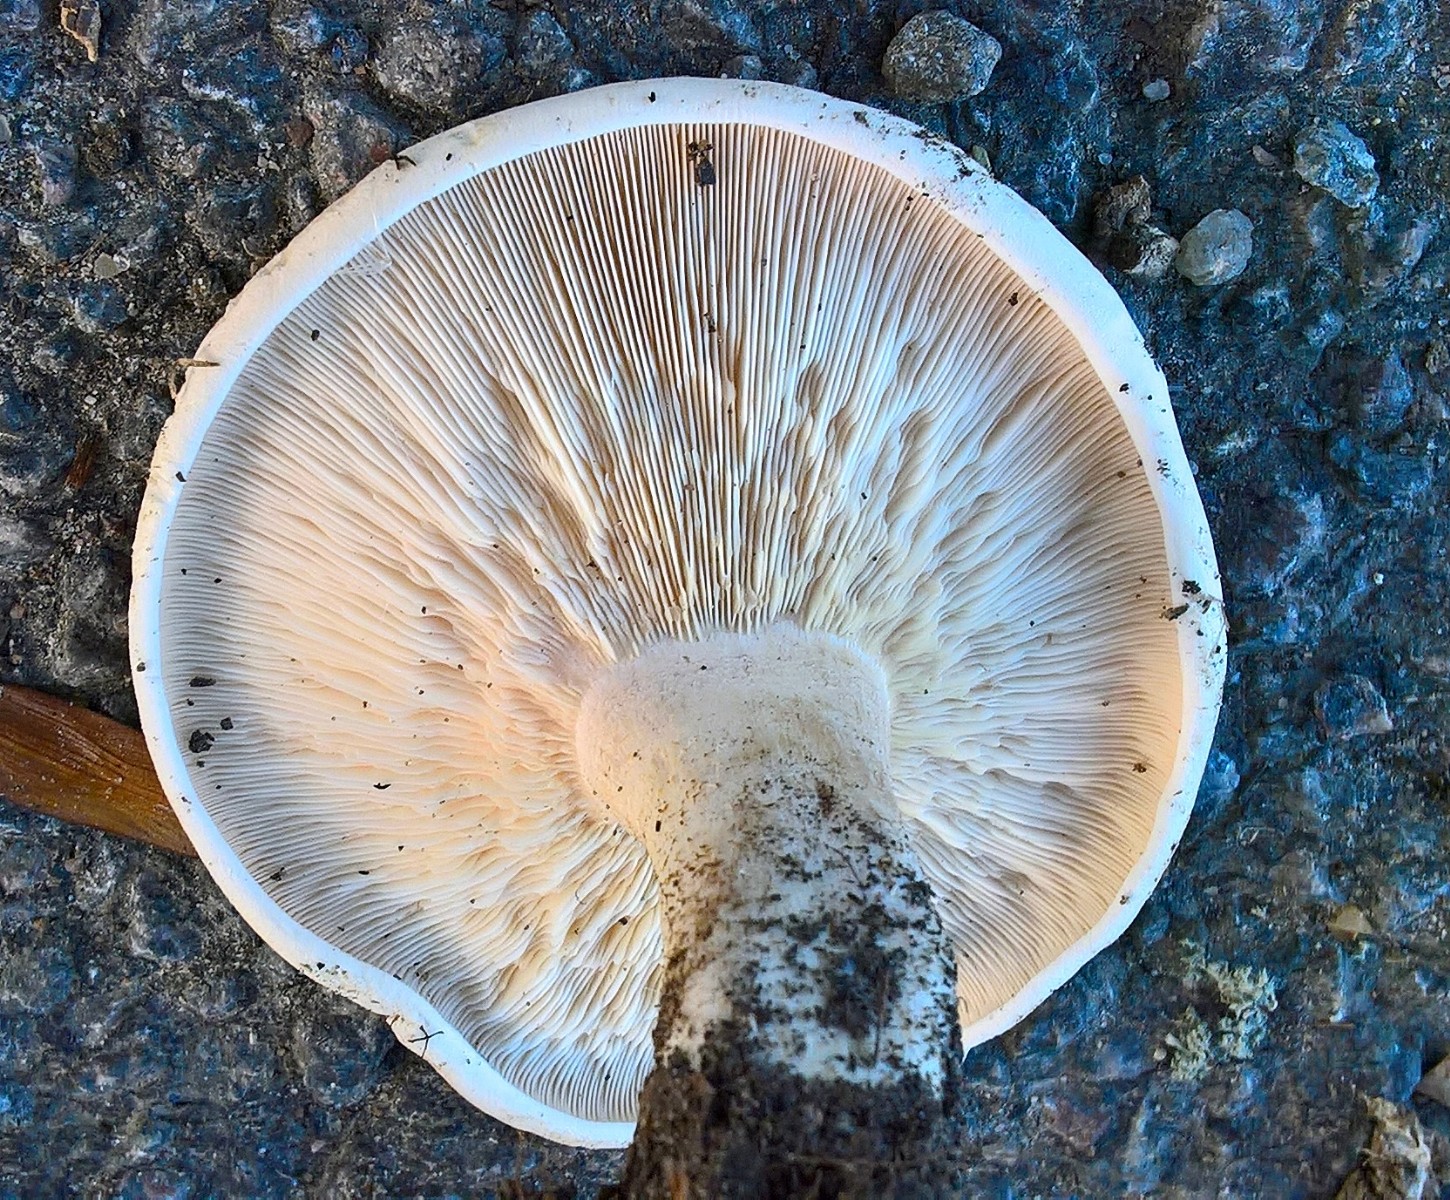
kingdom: Fungi
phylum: Basidiomycota
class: Agaricomycetes
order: Agaricales
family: Tricholomataceae
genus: Aspropaxillus
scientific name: Aspropaxillus giganteus
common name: kæmpe-tragtridderhat
